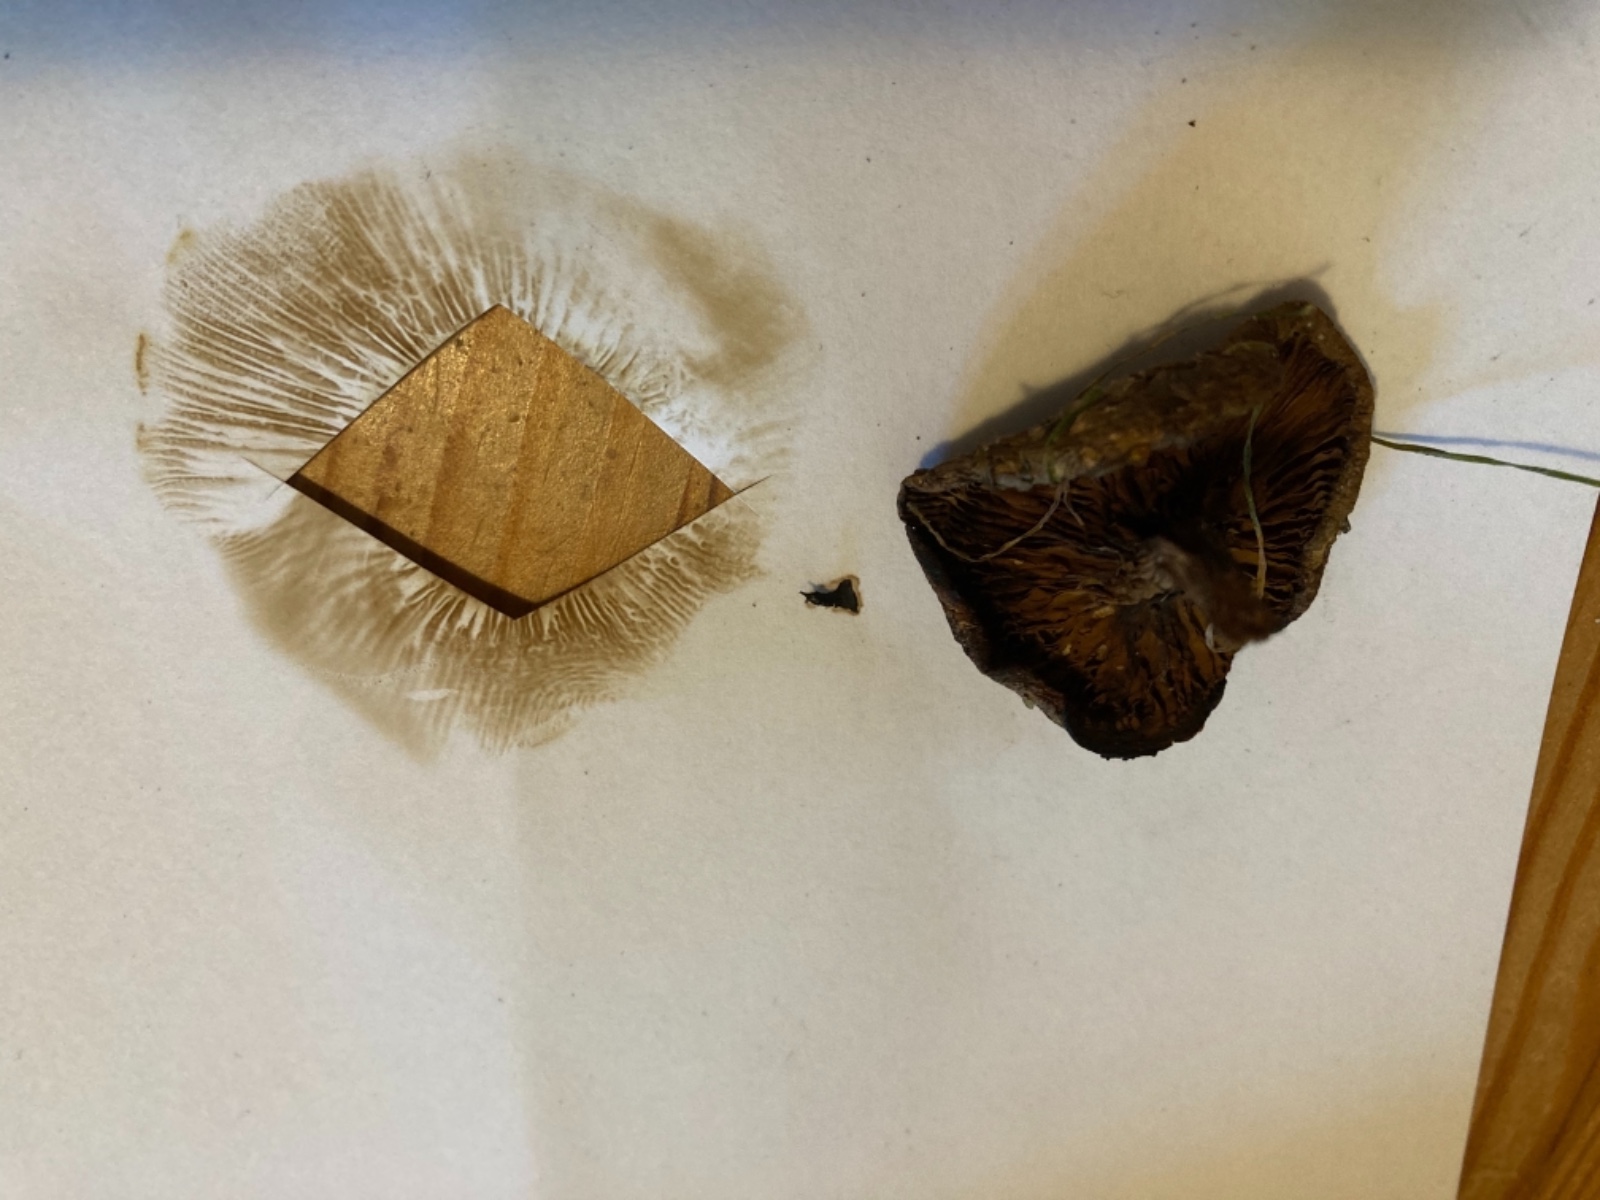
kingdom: Fungi
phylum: Basidiomycota
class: Agaricomycetes
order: Boletales
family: Paxillaceae
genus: Paxillus
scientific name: Paxillus rubicundulus
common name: Alder rollrim
